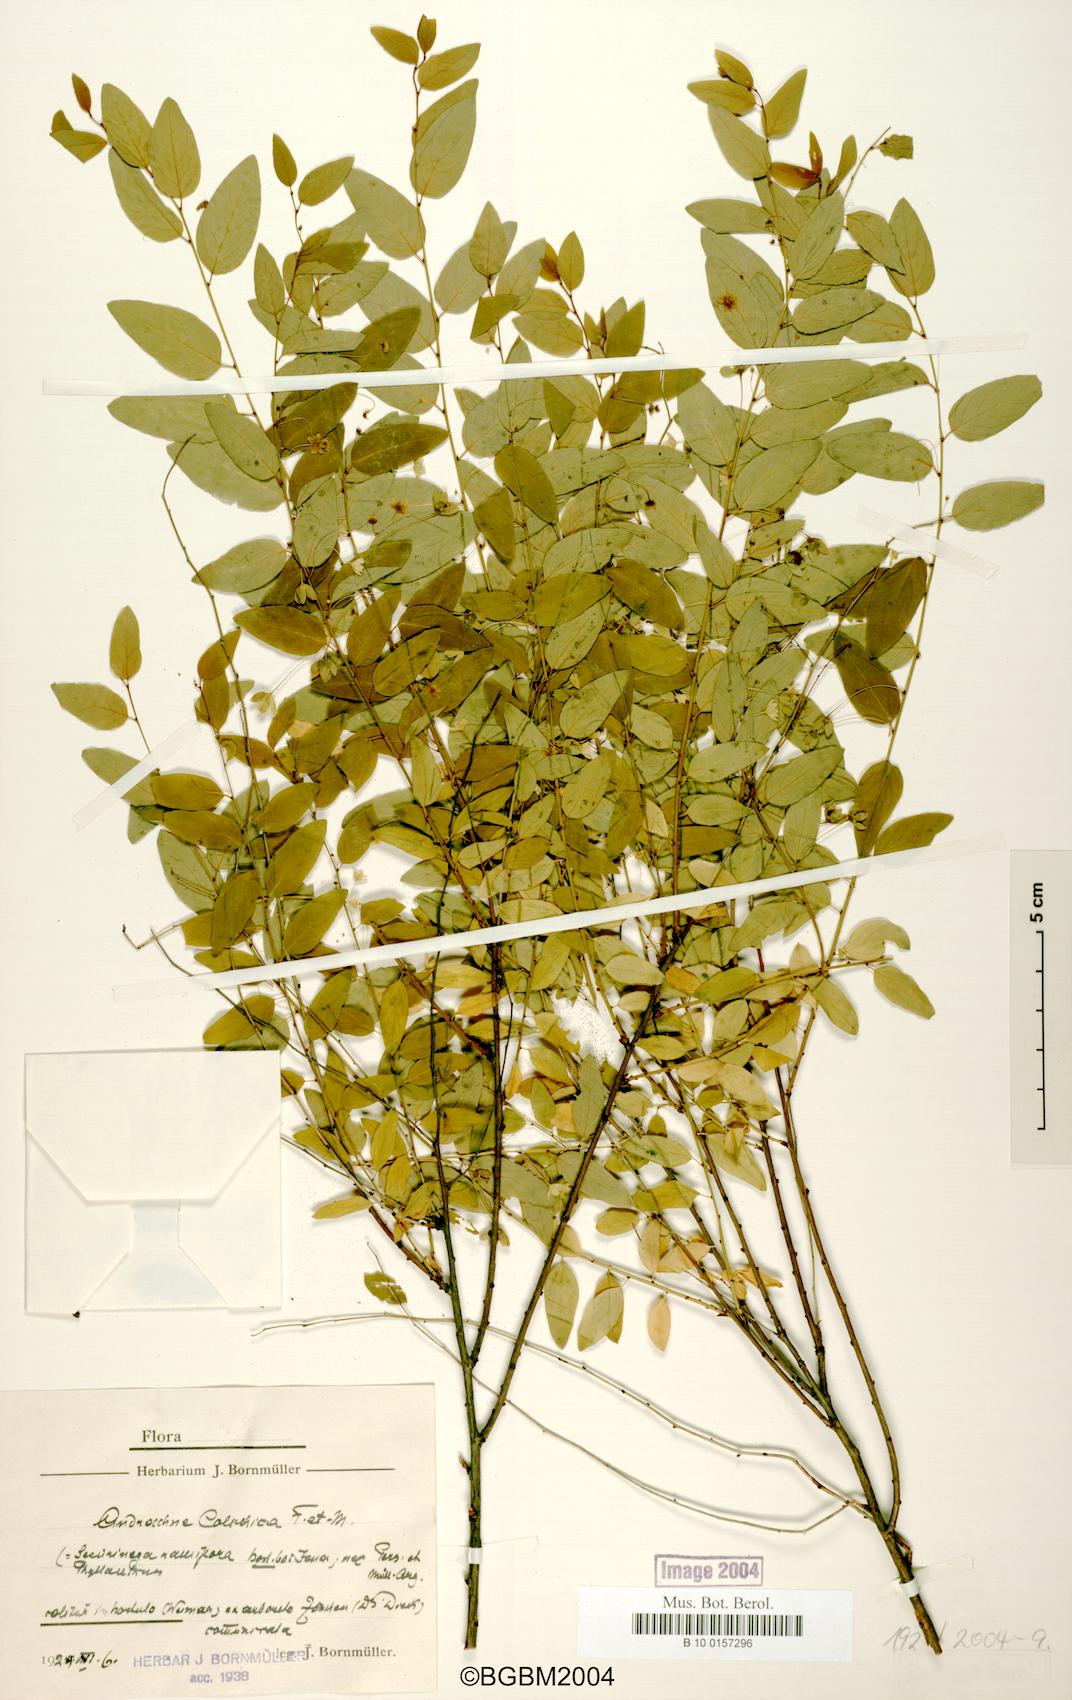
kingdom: Plantae
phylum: Tracheophyta
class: Magnoliopsida
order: Malpighiales
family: Phyllanthaceae
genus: Leptopus
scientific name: Leptopus chinensis
